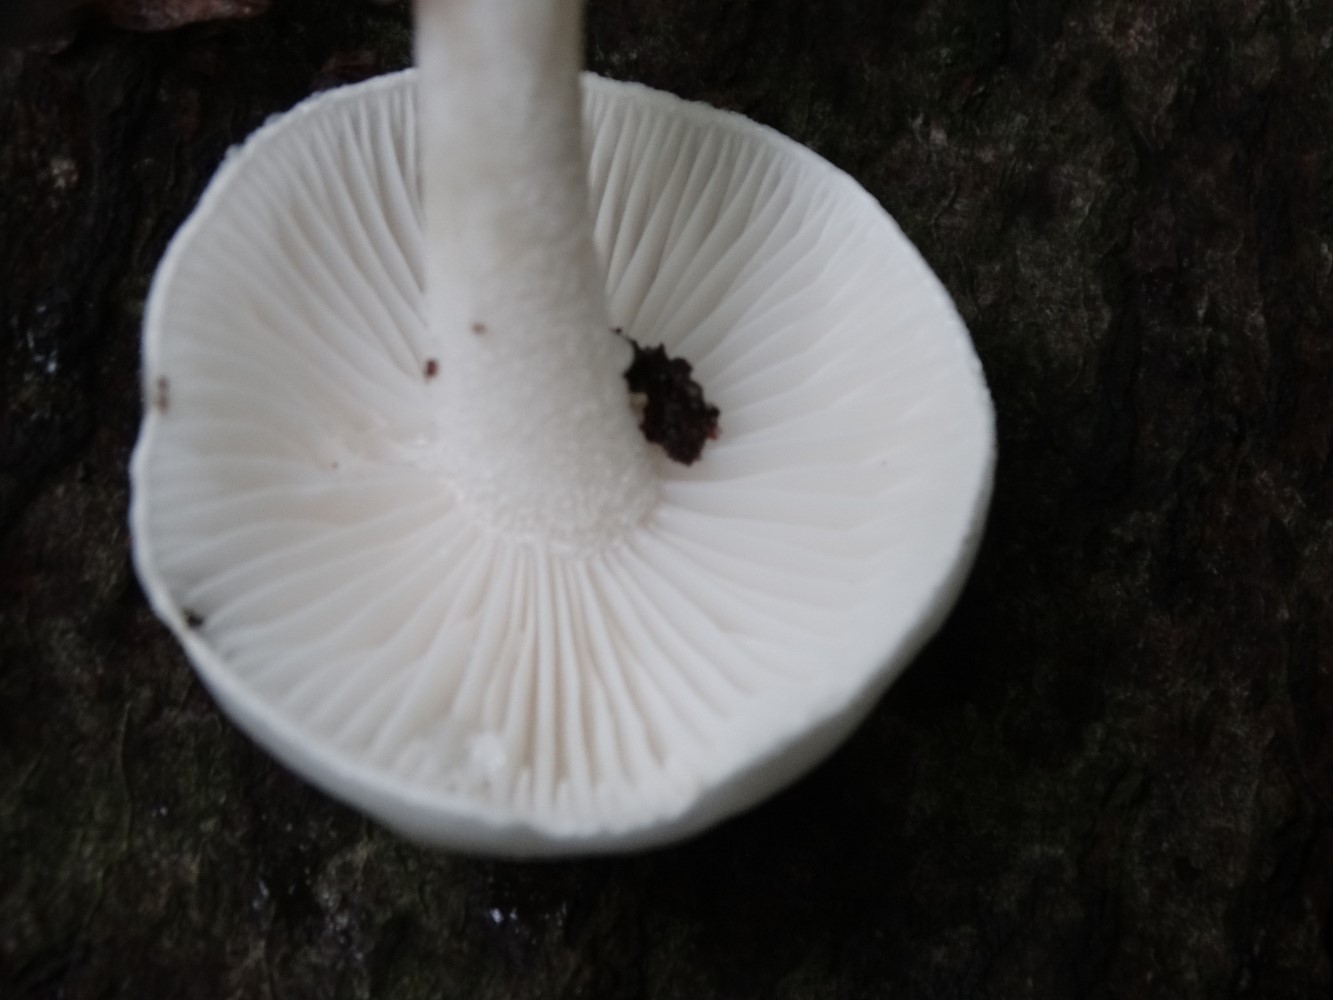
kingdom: Fungi
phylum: Basidiomycota
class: Agaricomycetes
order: Agaricales
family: Hygrophoraceae
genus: Hygrophorus
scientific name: Hygrophorus eburneus
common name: elfenbens-sneglehat
